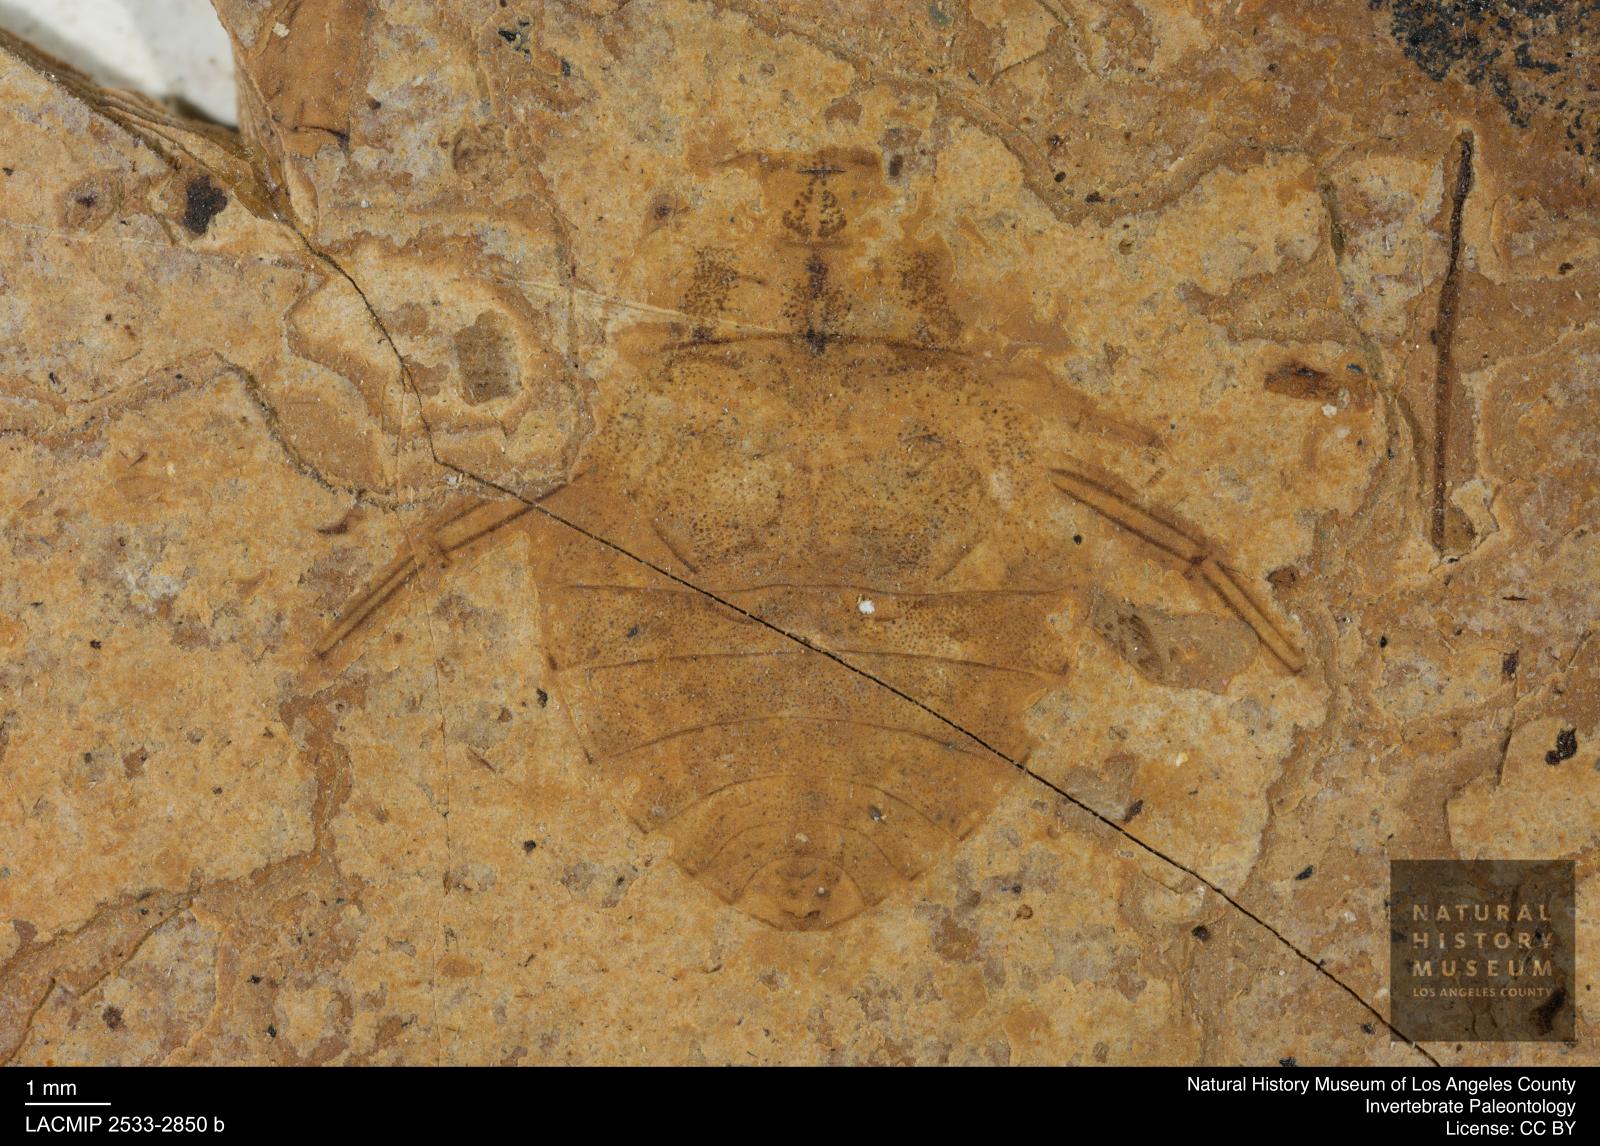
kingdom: Animalia
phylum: Arthropoda
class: Insecta
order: Hemiptera
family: Naucoridae
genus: Naucoris
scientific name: Naucoris rottensis
